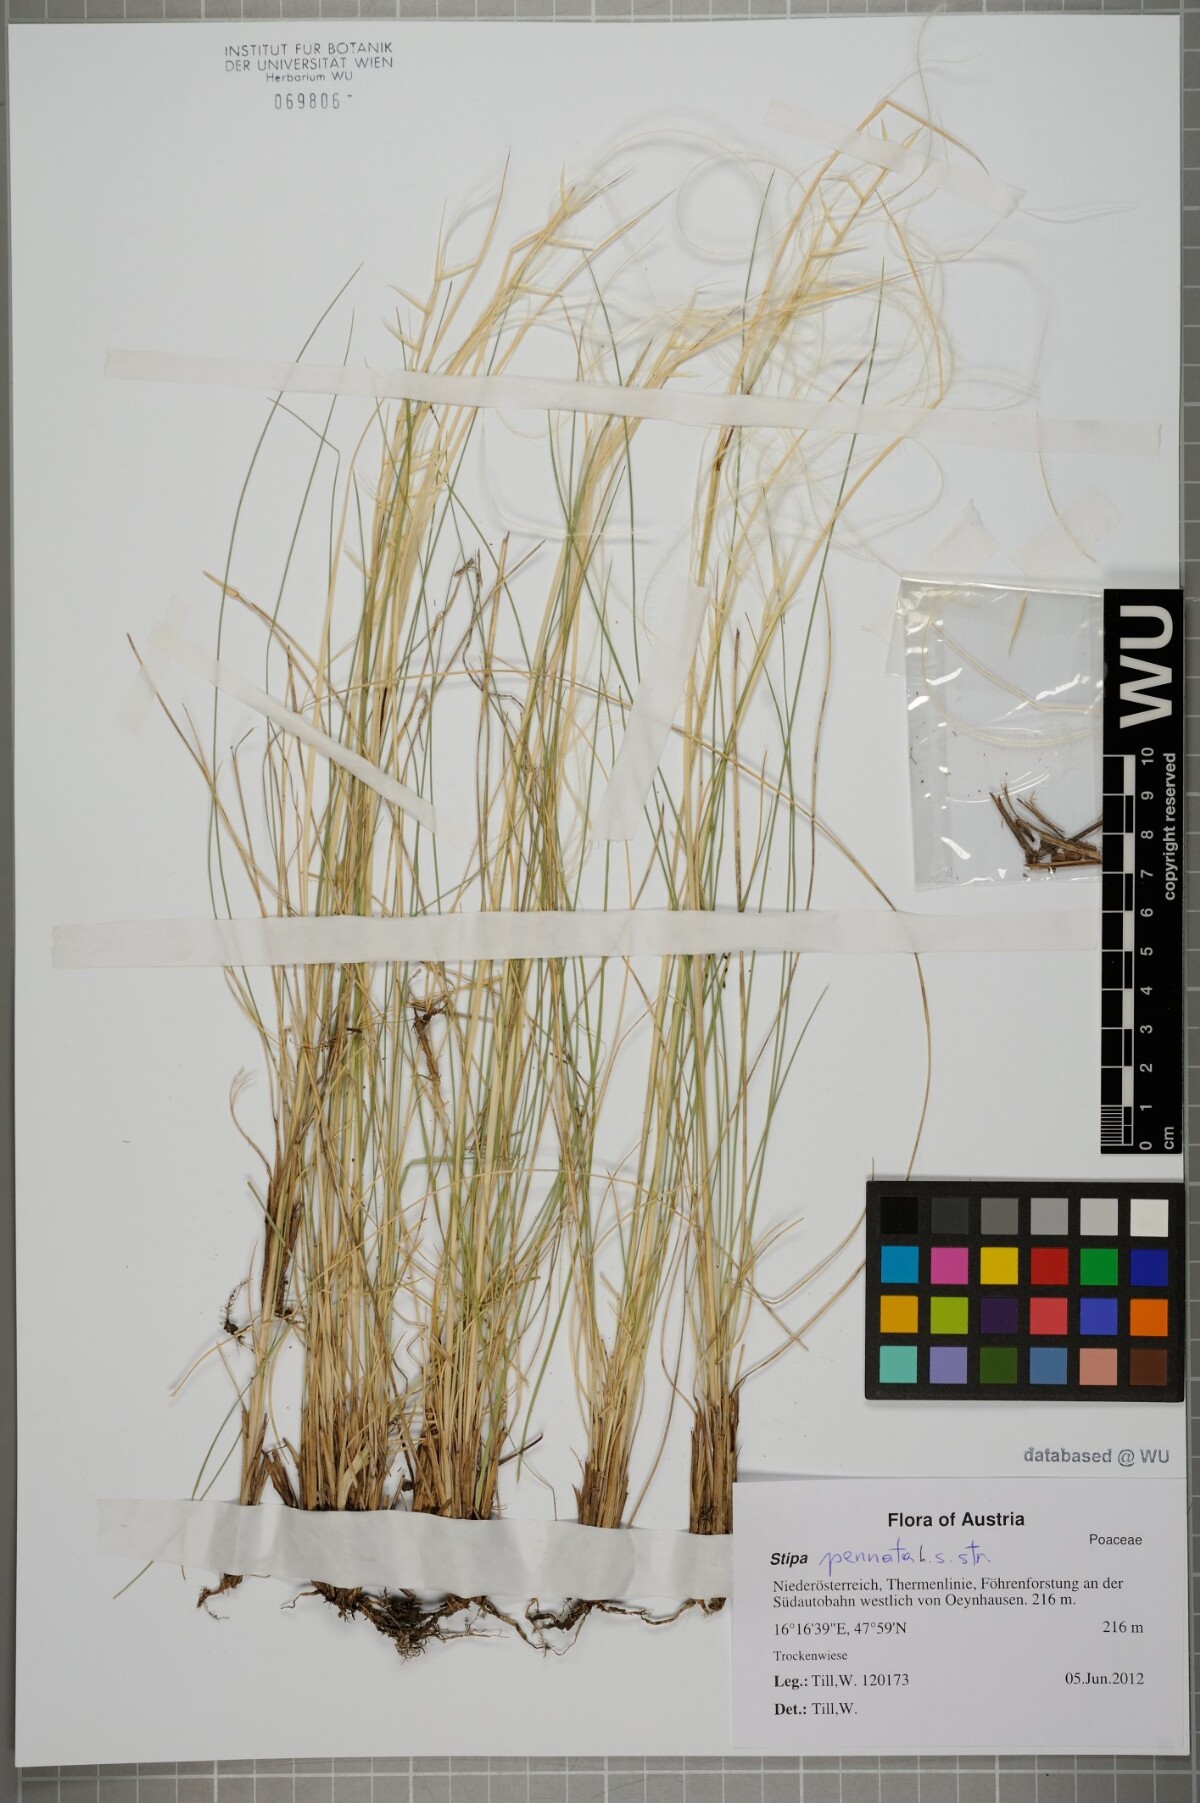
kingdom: Plantae
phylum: Tracheophyta
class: Liliopsida
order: Poales
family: Poaceae
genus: Stipa
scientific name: Stipa pennata
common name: European feather grass
